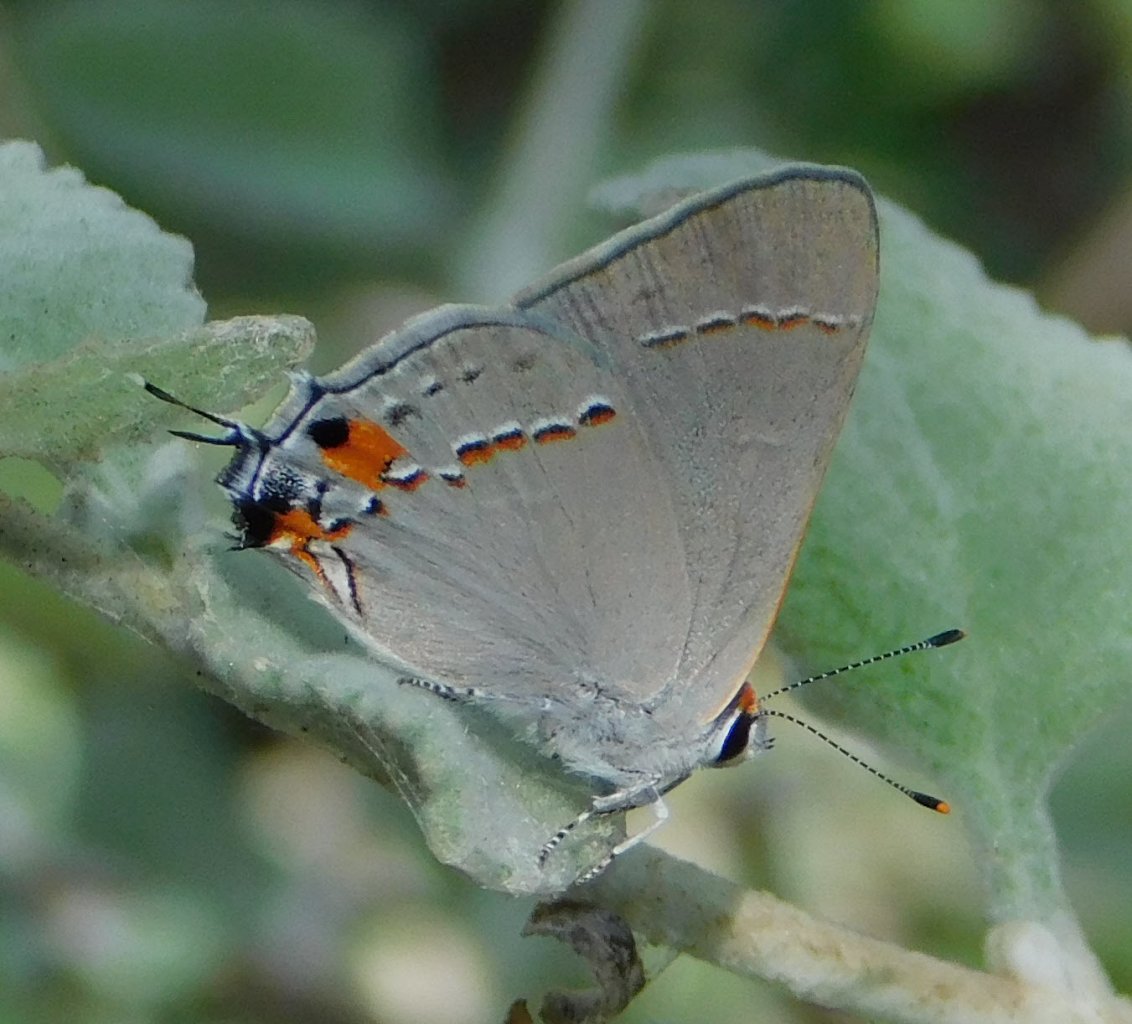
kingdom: Animalia
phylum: Arthropoda
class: Insecta
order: Lepidoptera
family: Lycaenidae
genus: Strymon
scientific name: Strymon melinus
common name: Gray Hairstreak
